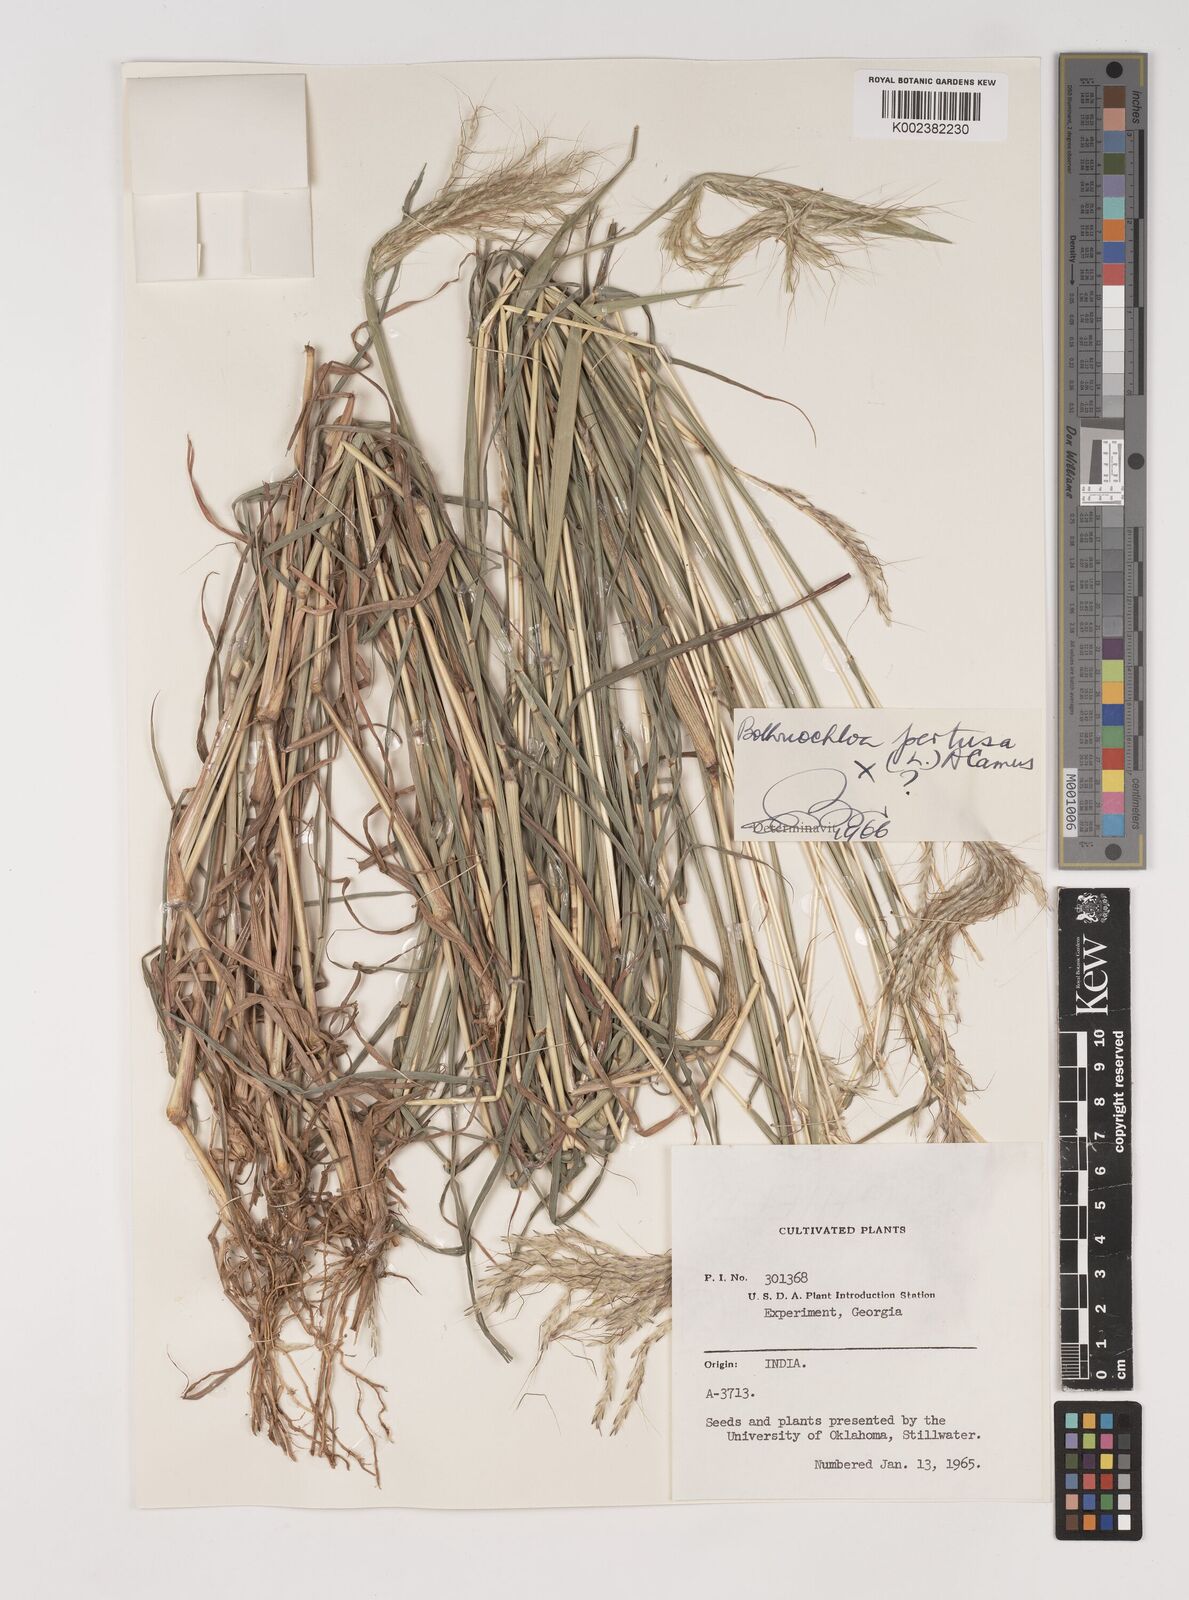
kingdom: Plantae
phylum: Tracheophyta
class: Liliopsida
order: Poales
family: Poaceae
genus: Bothriochloa
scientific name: Bothriochloa
